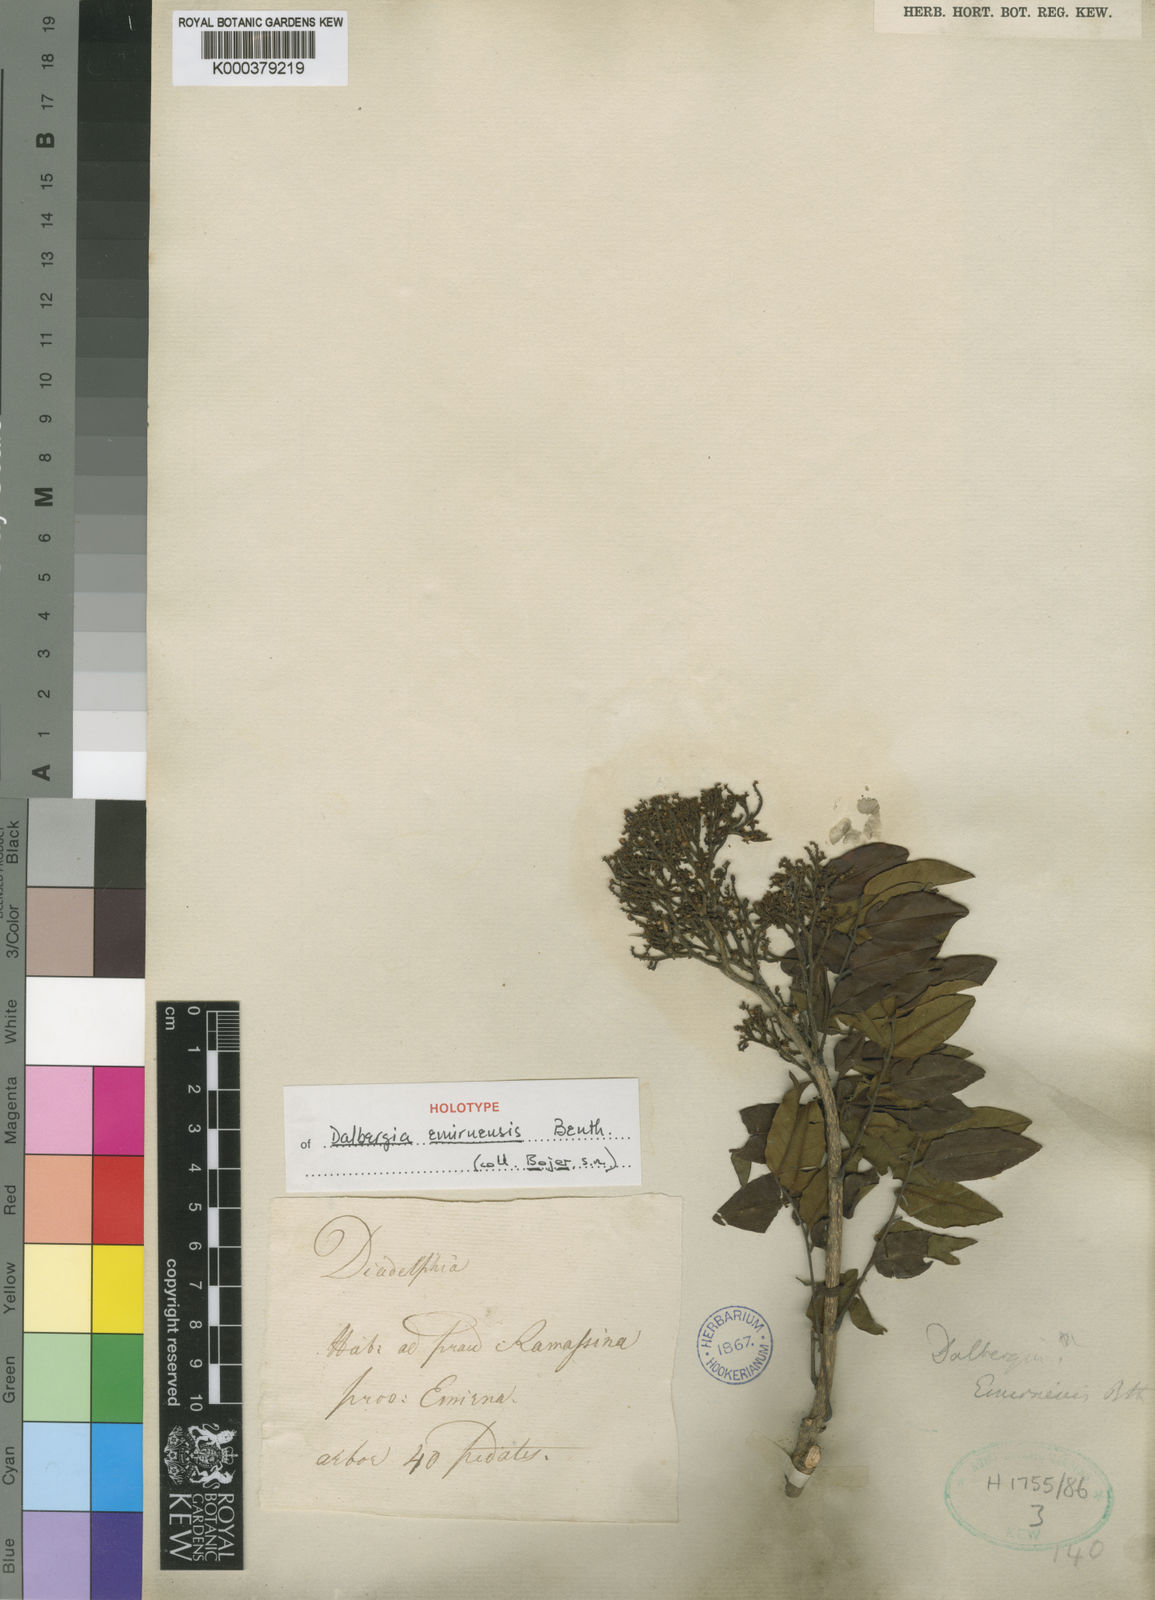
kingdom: Plantae
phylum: Tracheophyta
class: Magnoliopsida
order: Fabales
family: Fabaceae
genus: Dalbergia
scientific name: Dalbergia emirnensis
